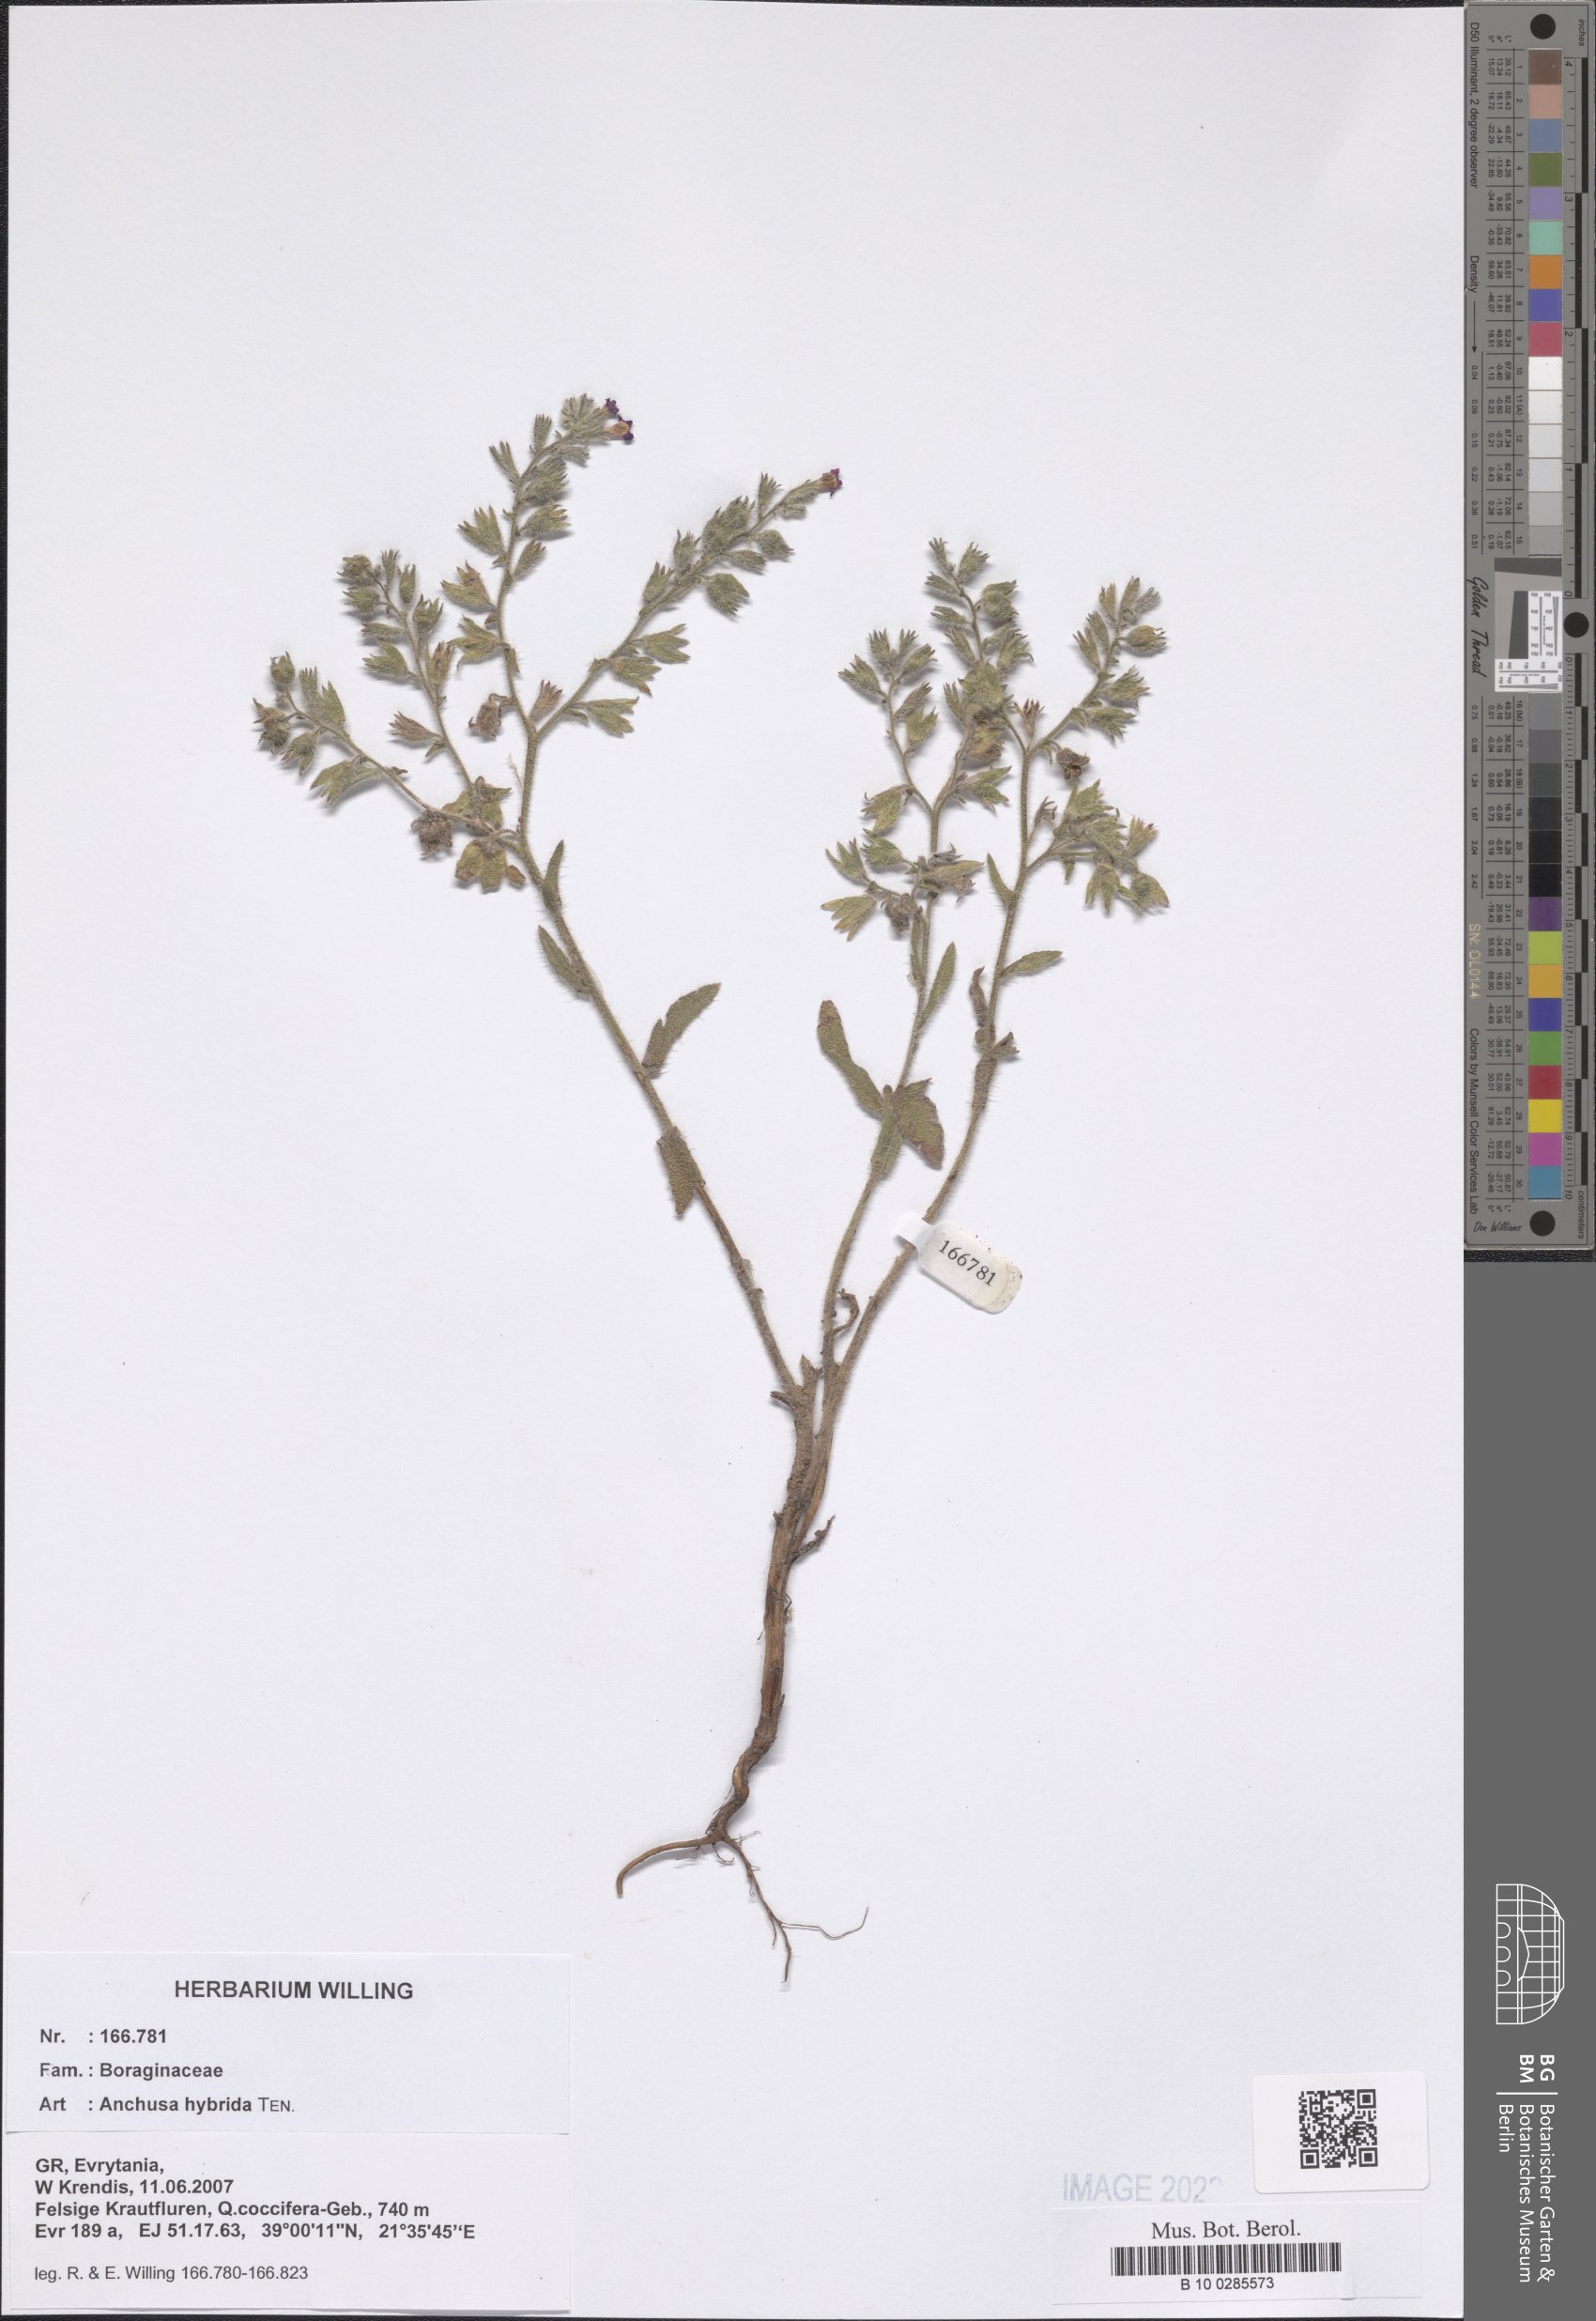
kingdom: Plantae
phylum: Tracheophyta
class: Magnoliopsida
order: Boraginales
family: Boraginaceae
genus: Anchusa
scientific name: Anchusa hybrida
